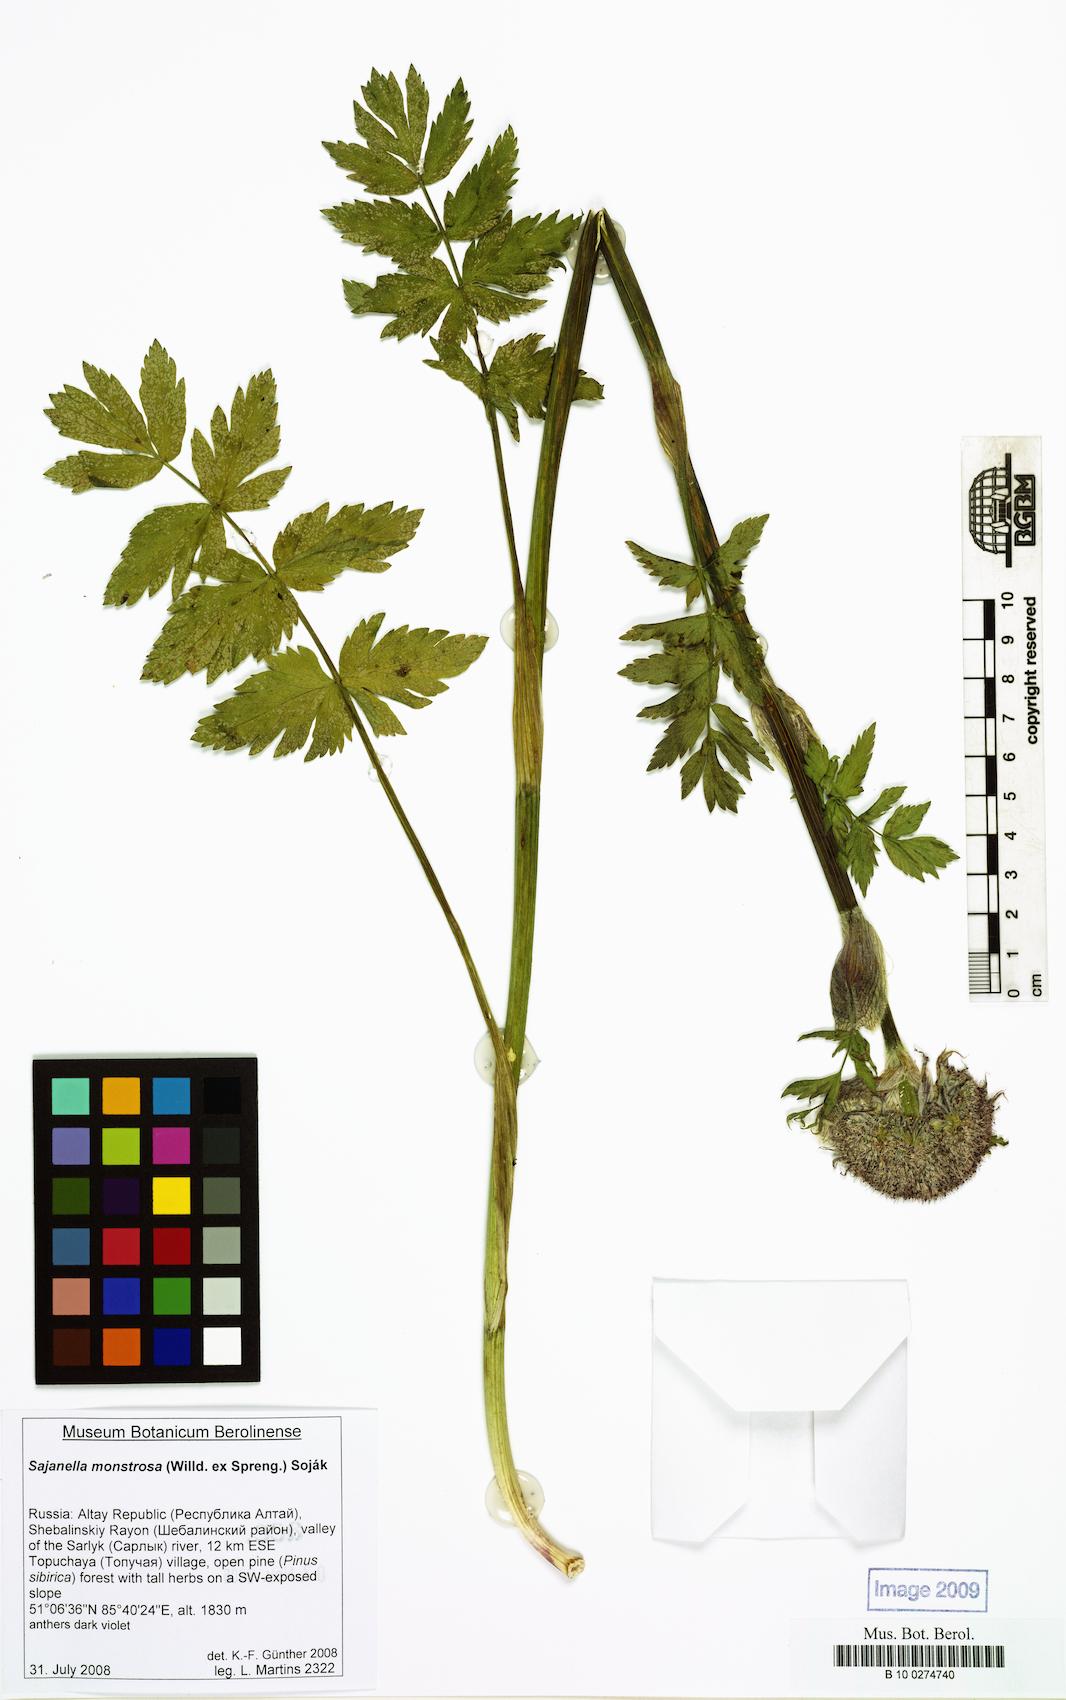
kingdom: Plantae
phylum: Tracheophyta
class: Magnoliopsida
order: Apiales
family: Apiaceae
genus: Sajanella
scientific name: Sajanella monstrosa
